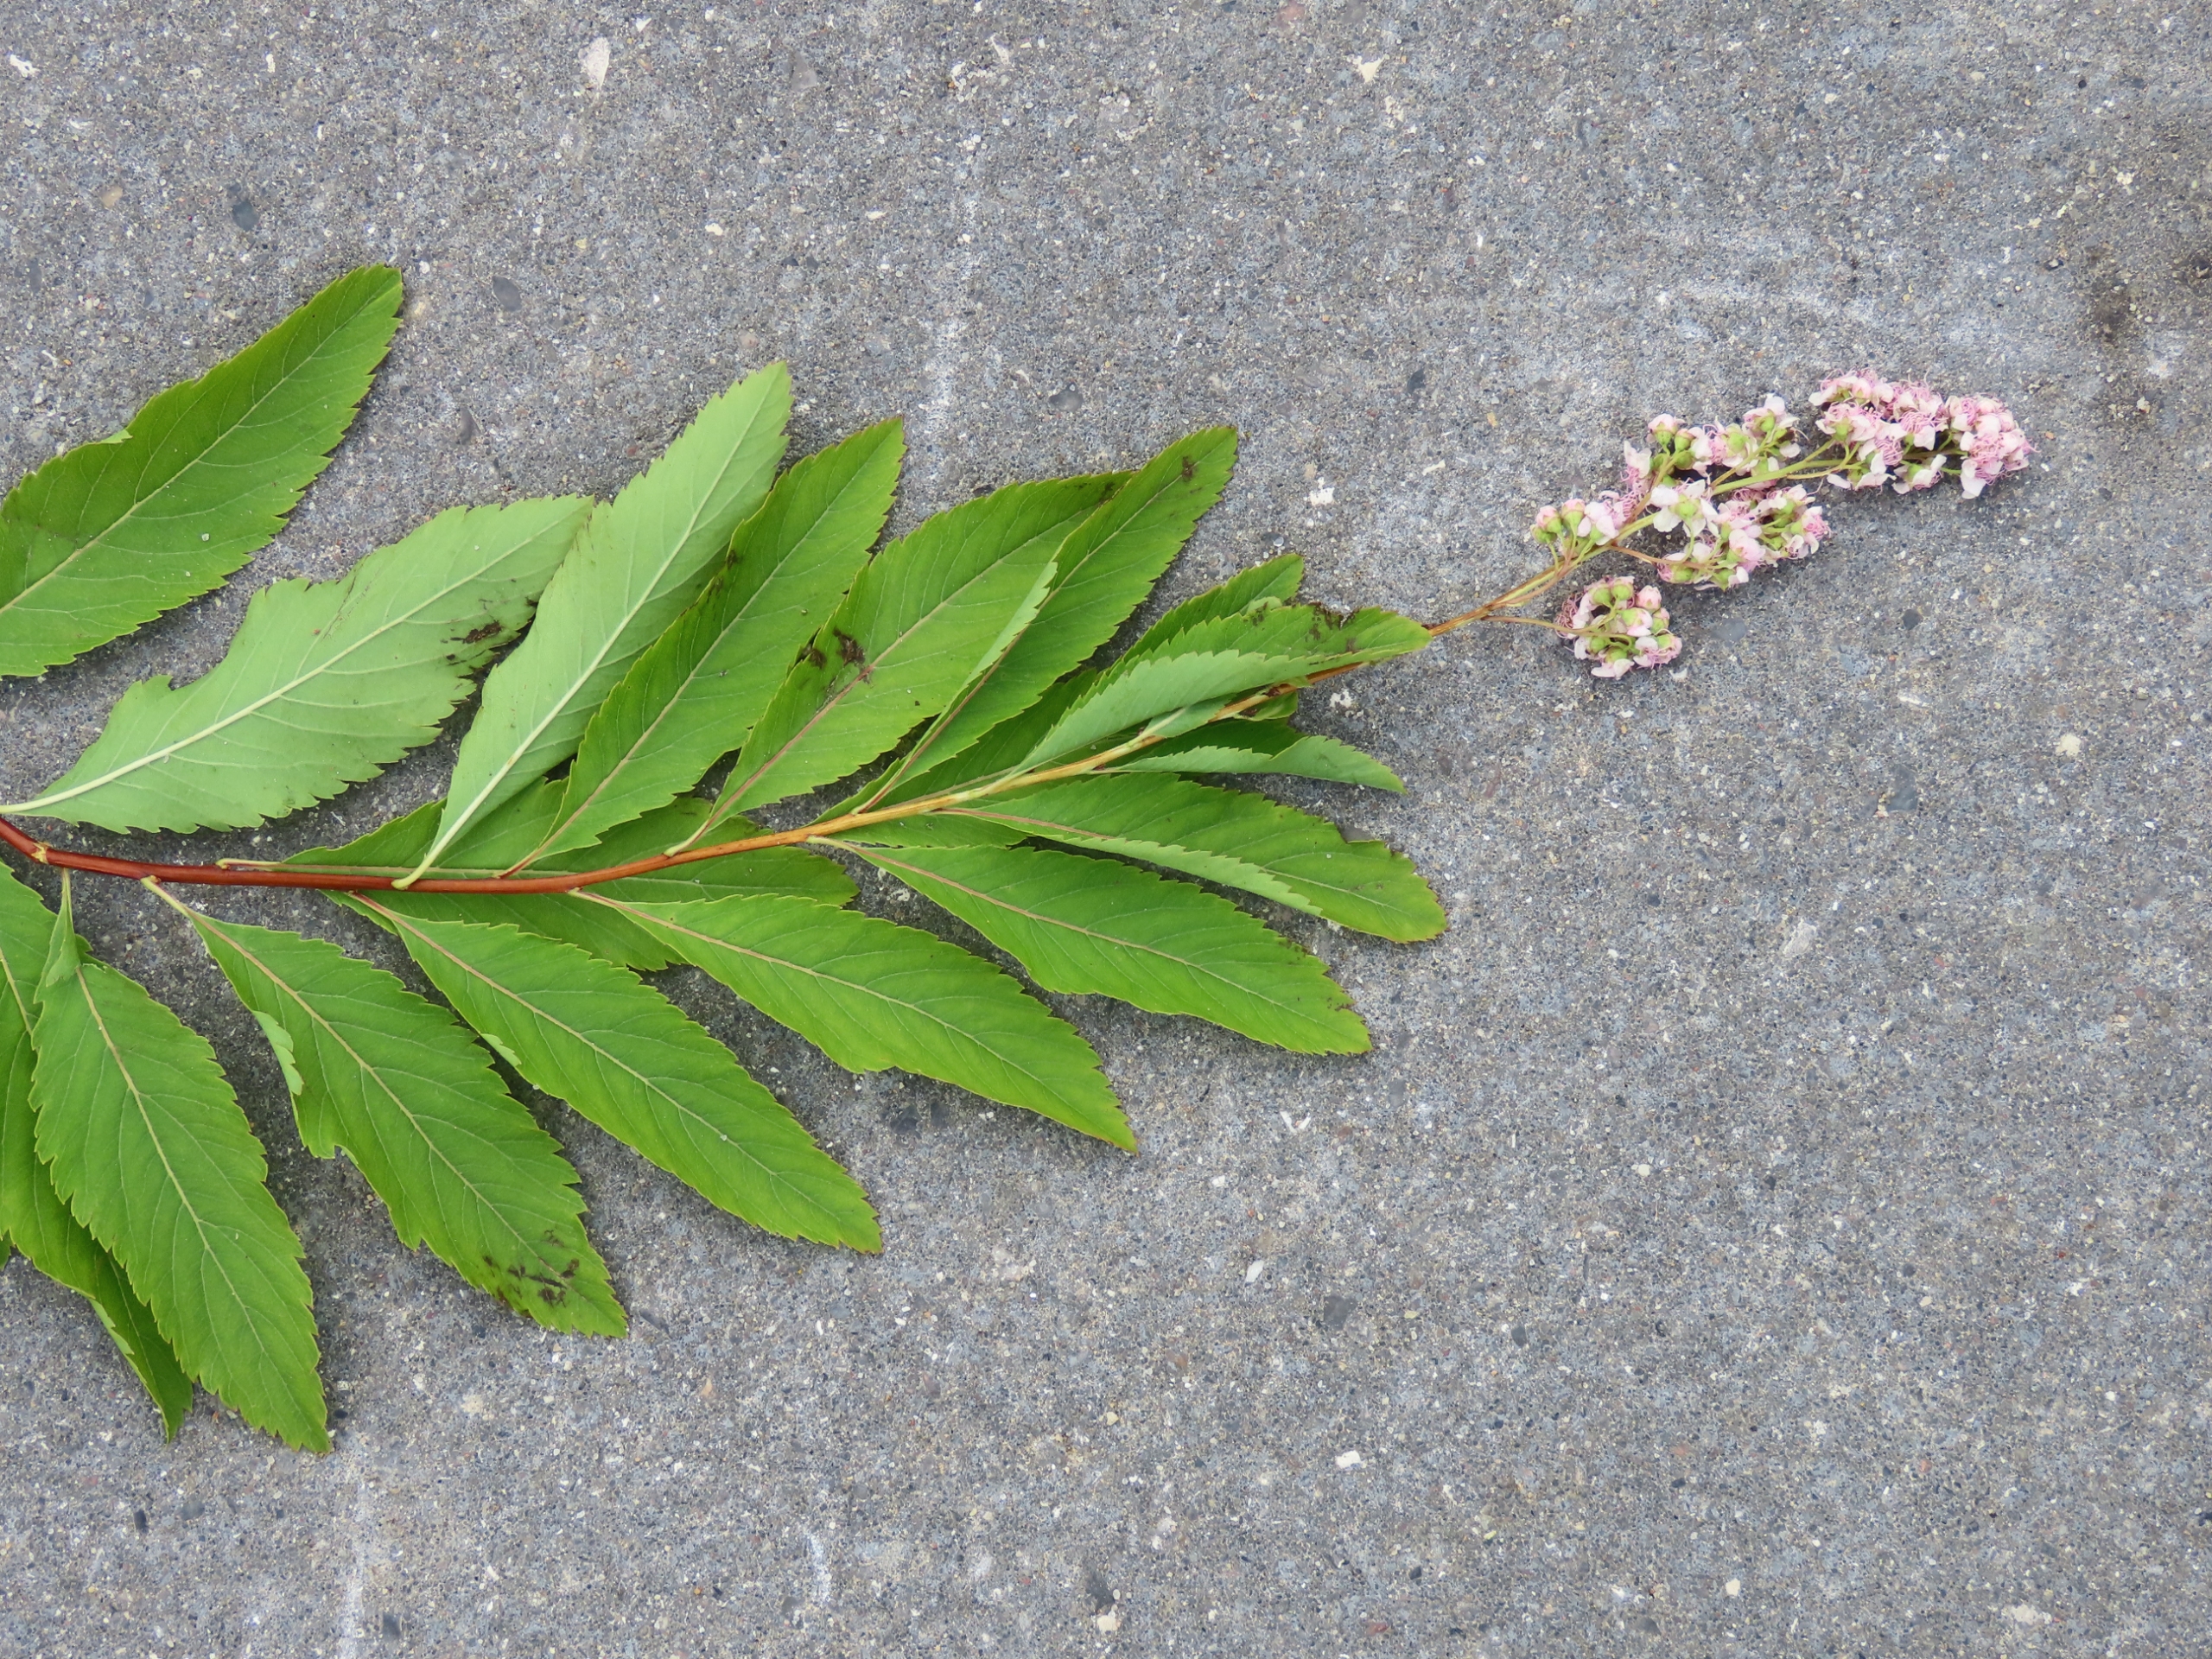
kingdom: Plantae
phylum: Tracheophyta
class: Magnoliopsida
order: Rosales
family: Rosaceae
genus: Spiraea
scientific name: Spiraea rosalba
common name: Bleg spiræa
